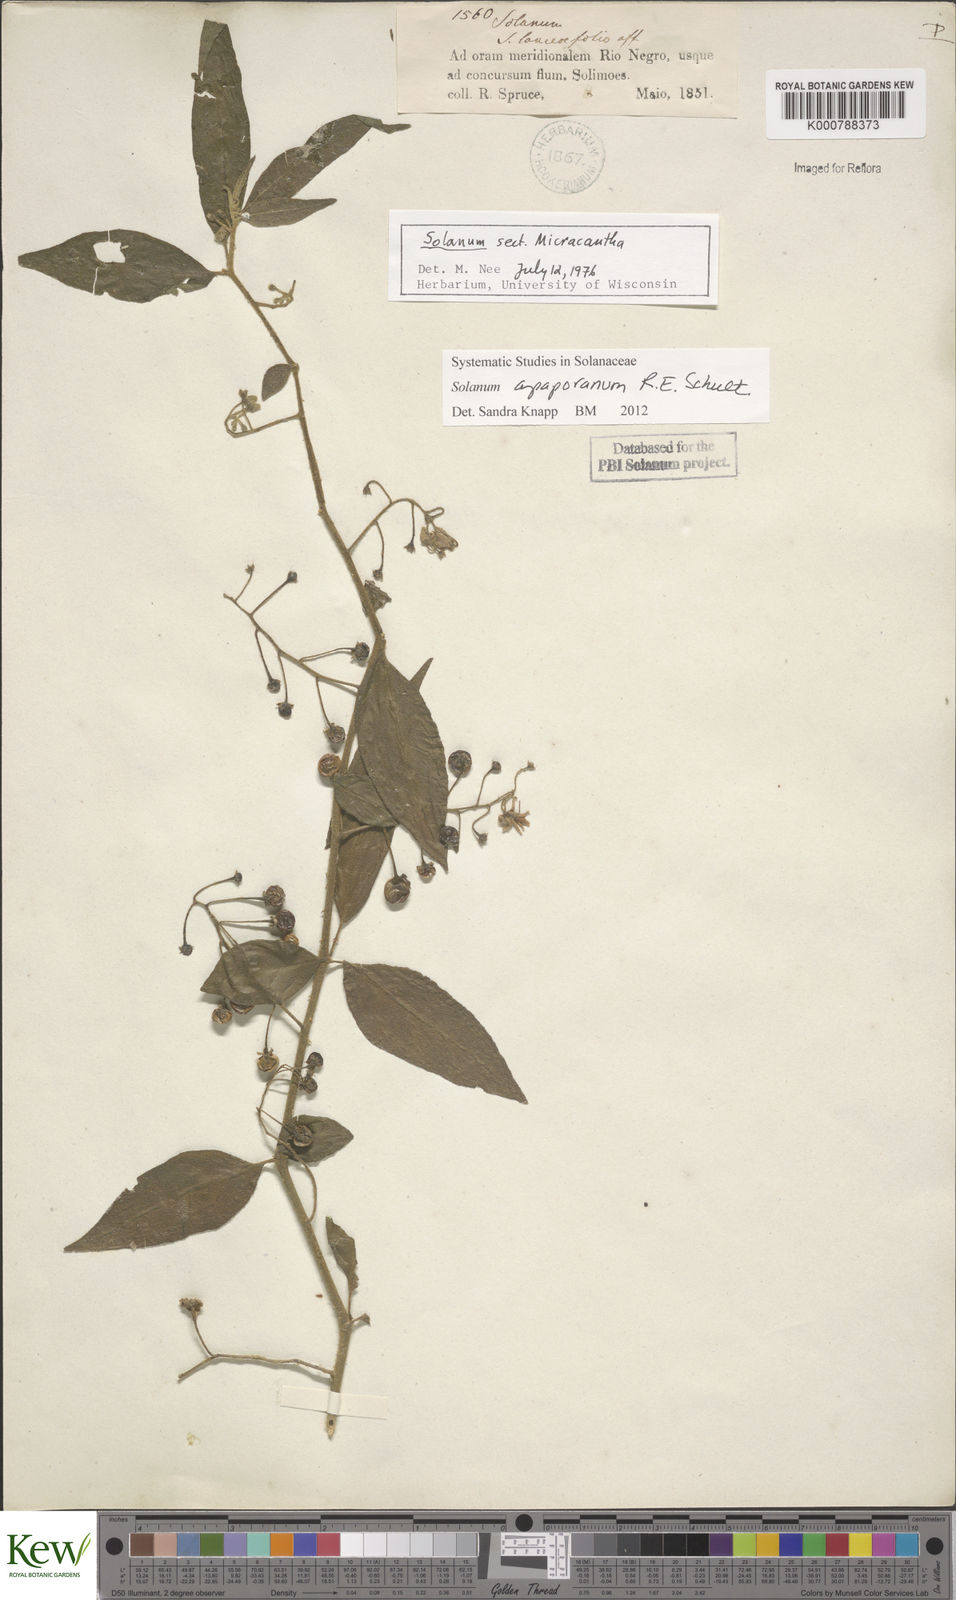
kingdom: Plantae
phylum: Tracheophyta
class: Magnoliopsida
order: Solanales
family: Solanaceae
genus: Solanum
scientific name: Solanum apaporanum
